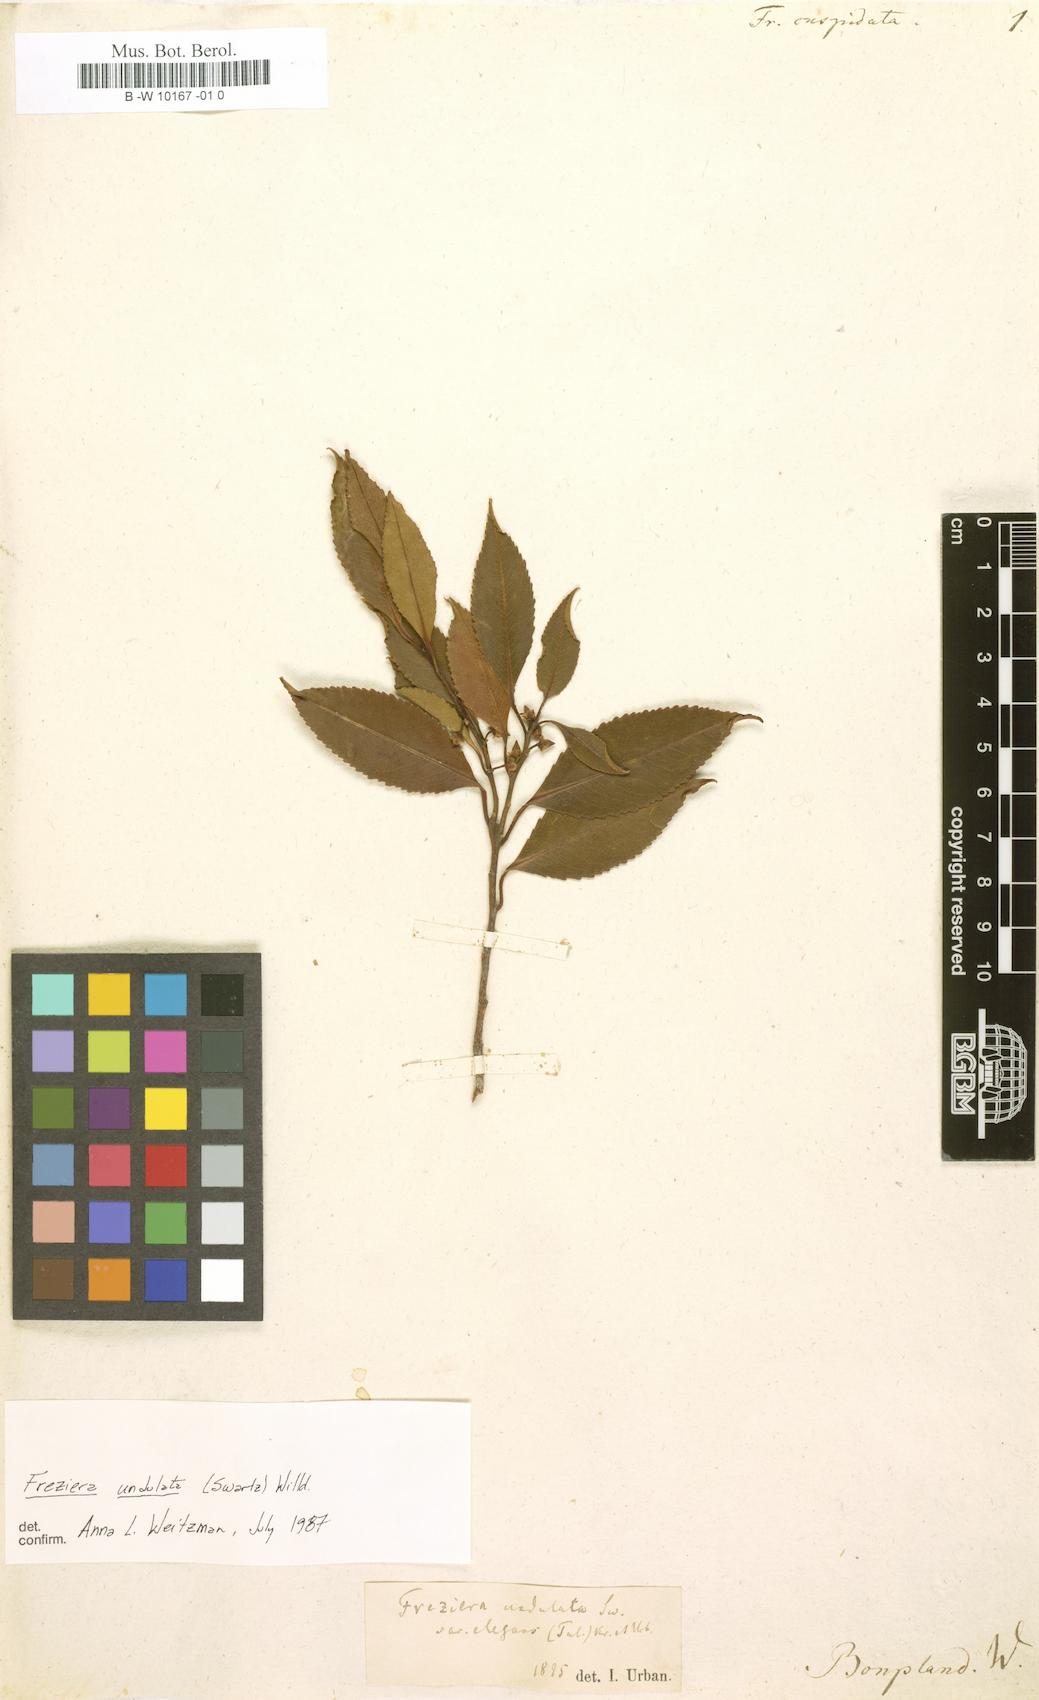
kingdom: Plantae
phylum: Tracheophyta
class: Magnoliopsida
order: Ericales
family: Pentaphylacaceae
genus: Freziera
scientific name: Freziera
